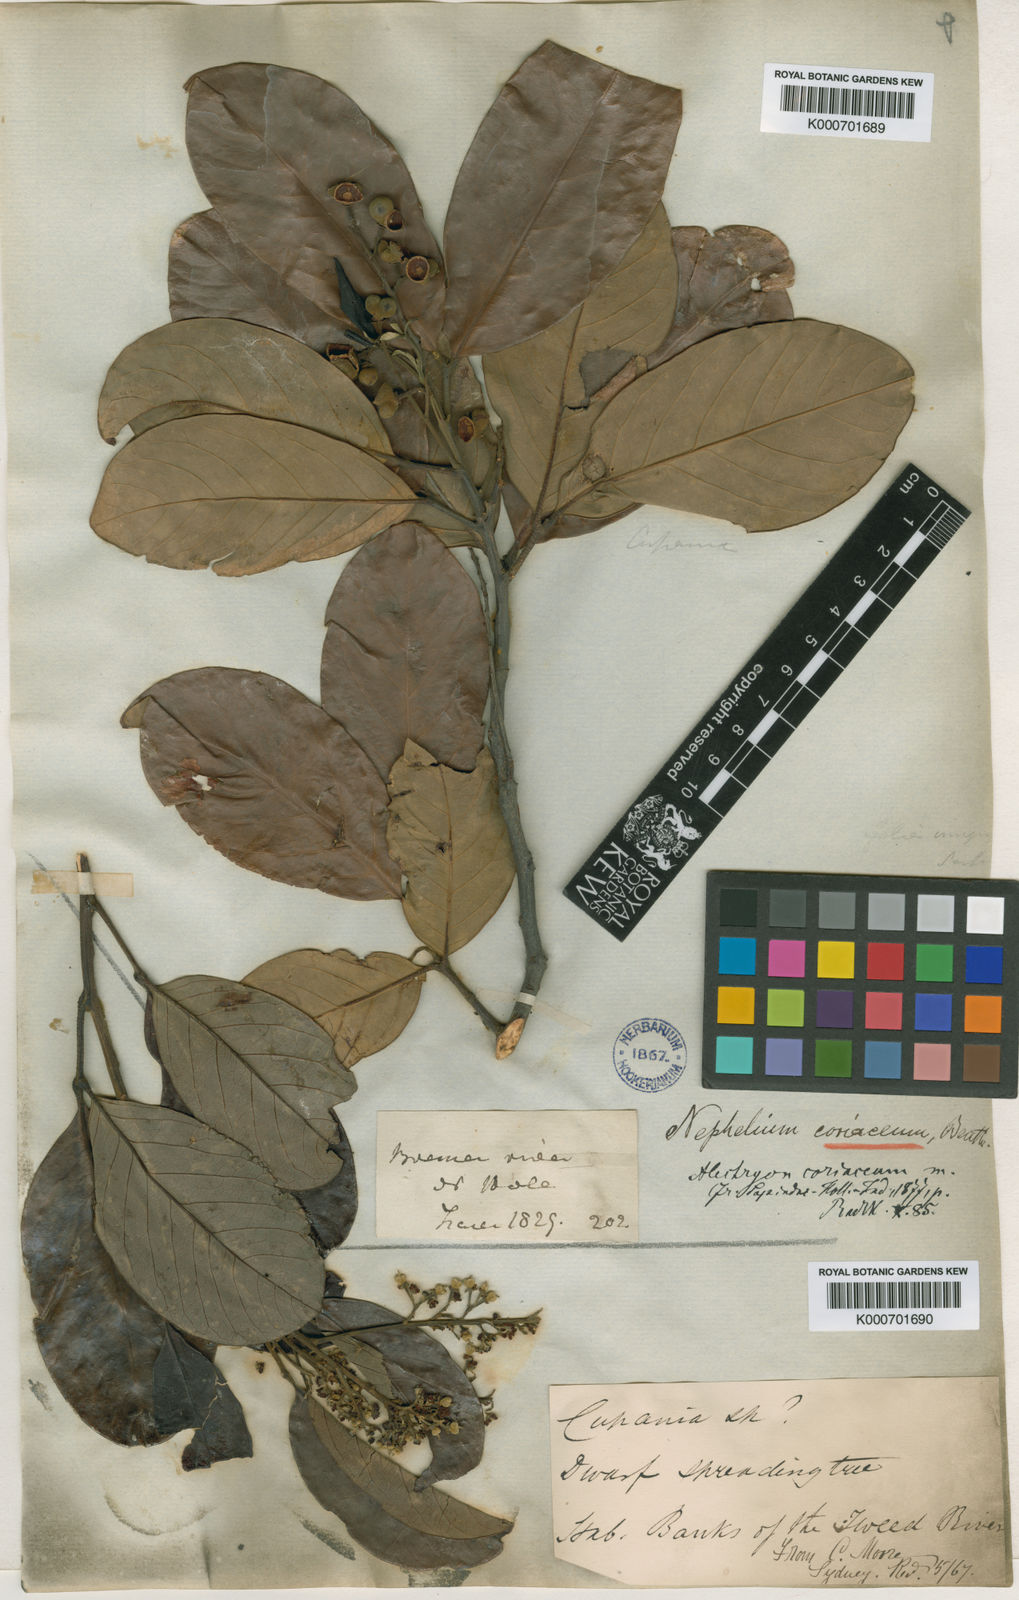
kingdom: Plantae
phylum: Tracheophyta
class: Magnoliopsida
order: Sapindales
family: Sapindaceae
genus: Alectryon
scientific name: Alectryon coriaceus
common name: Beach alectryon
